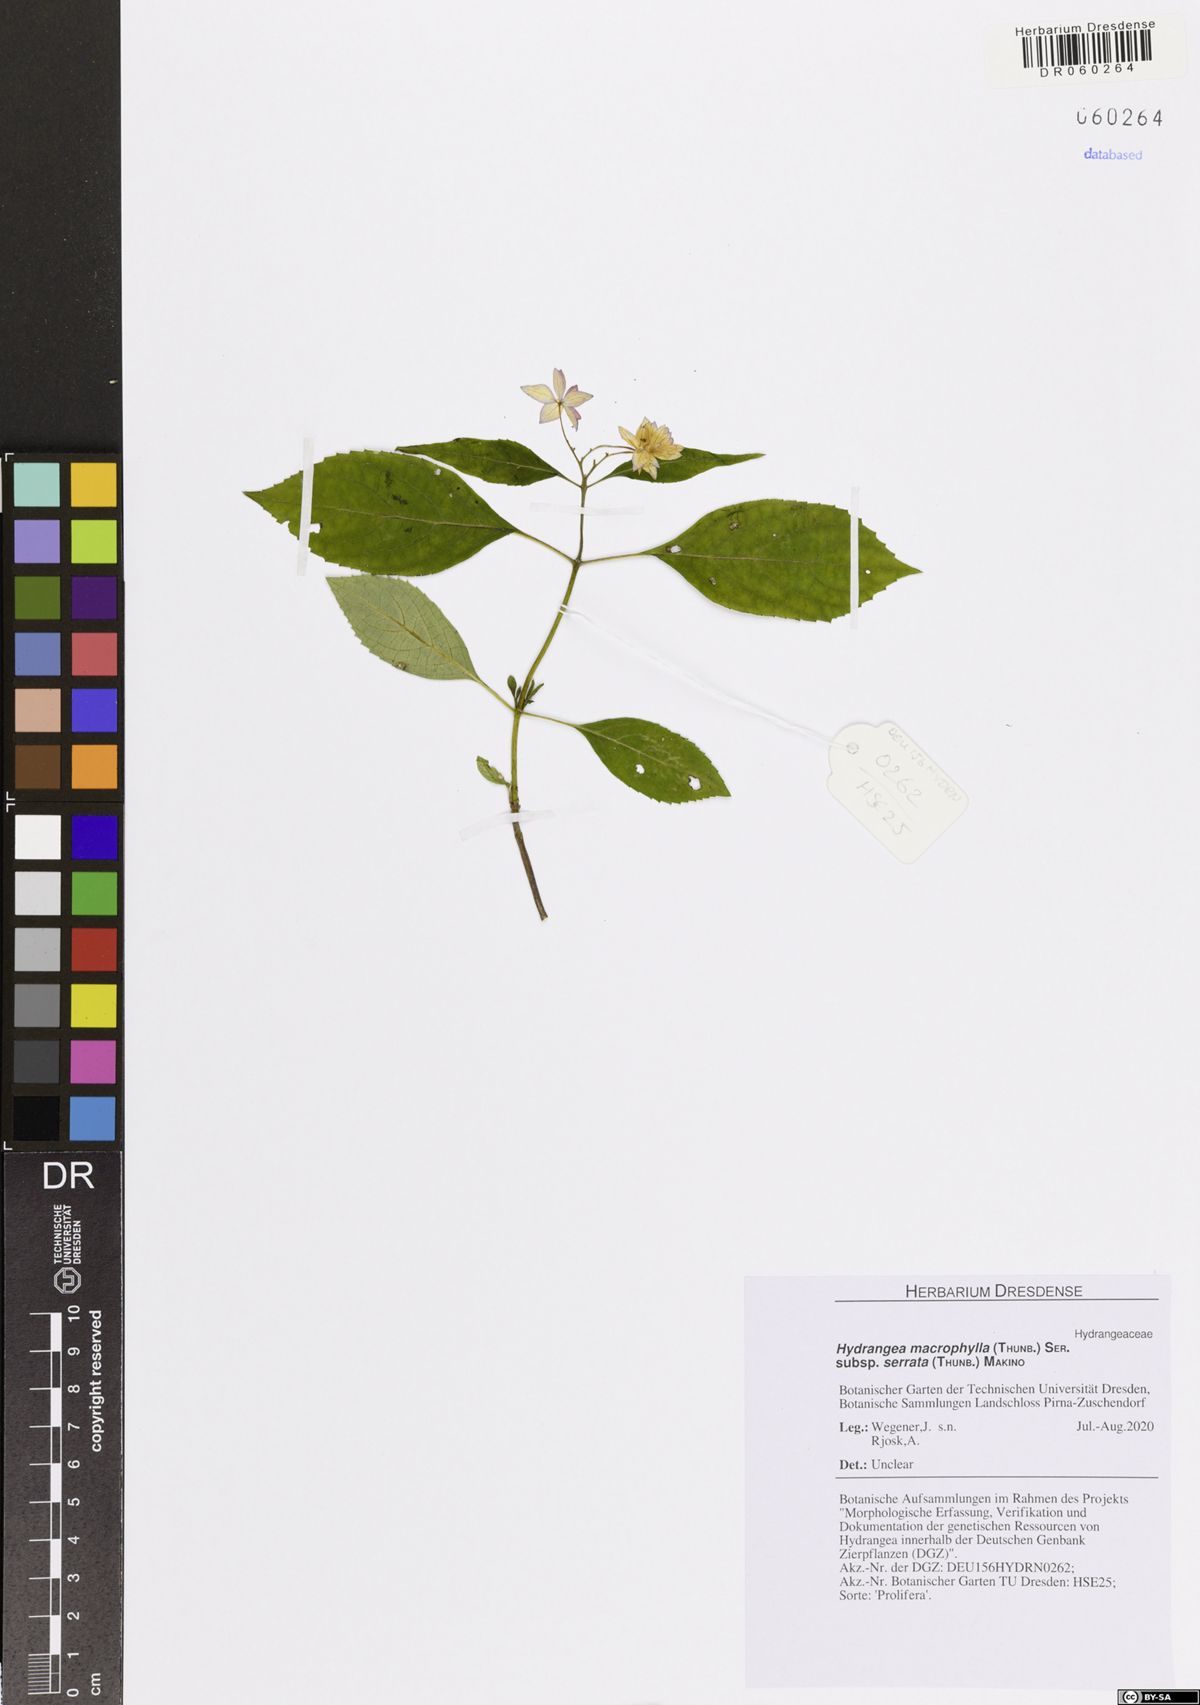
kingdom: Plantae
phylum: Tracheophyta
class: Magnoliopsida
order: Cornales
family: Hydrangeaceae
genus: Hydrangea
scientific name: Hydrangea serrata
